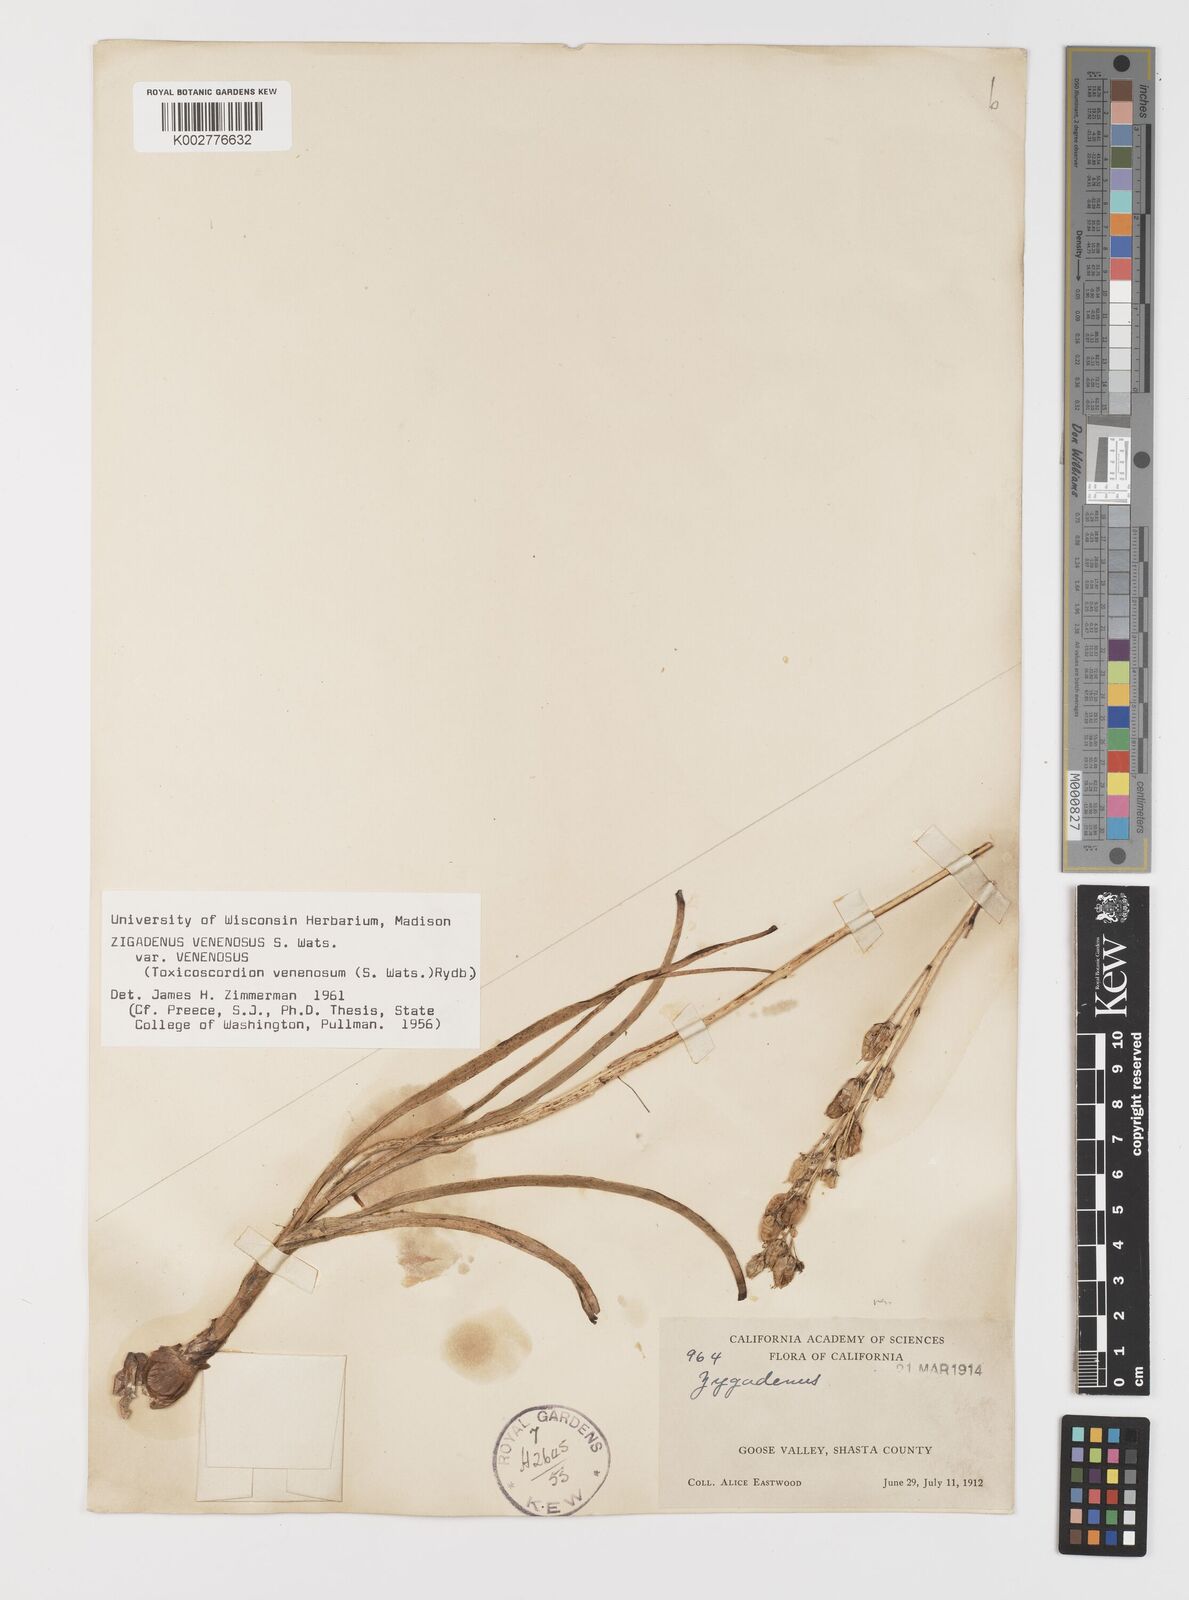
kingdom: Plantae
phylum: Tracheophyta
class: Liliopsida
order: Liliales
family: Melanthiaceae
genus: Toxicoscordion
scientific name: Toxicoscordion venenosum
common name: Meadow death camas
